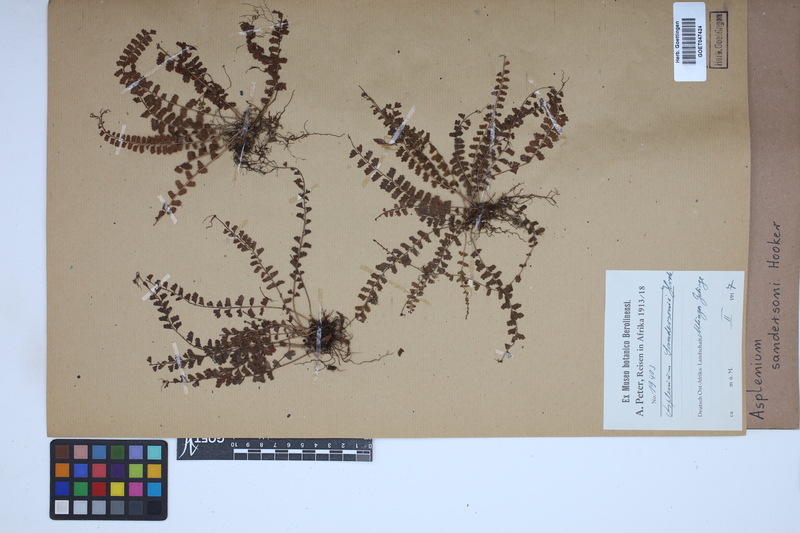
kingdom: Plantae
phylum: Tracheophyta
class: Polypodiopsida
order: Polypodiales
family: Aspleniaceae
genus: Asplenium
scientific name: Asplenium sandersonii
